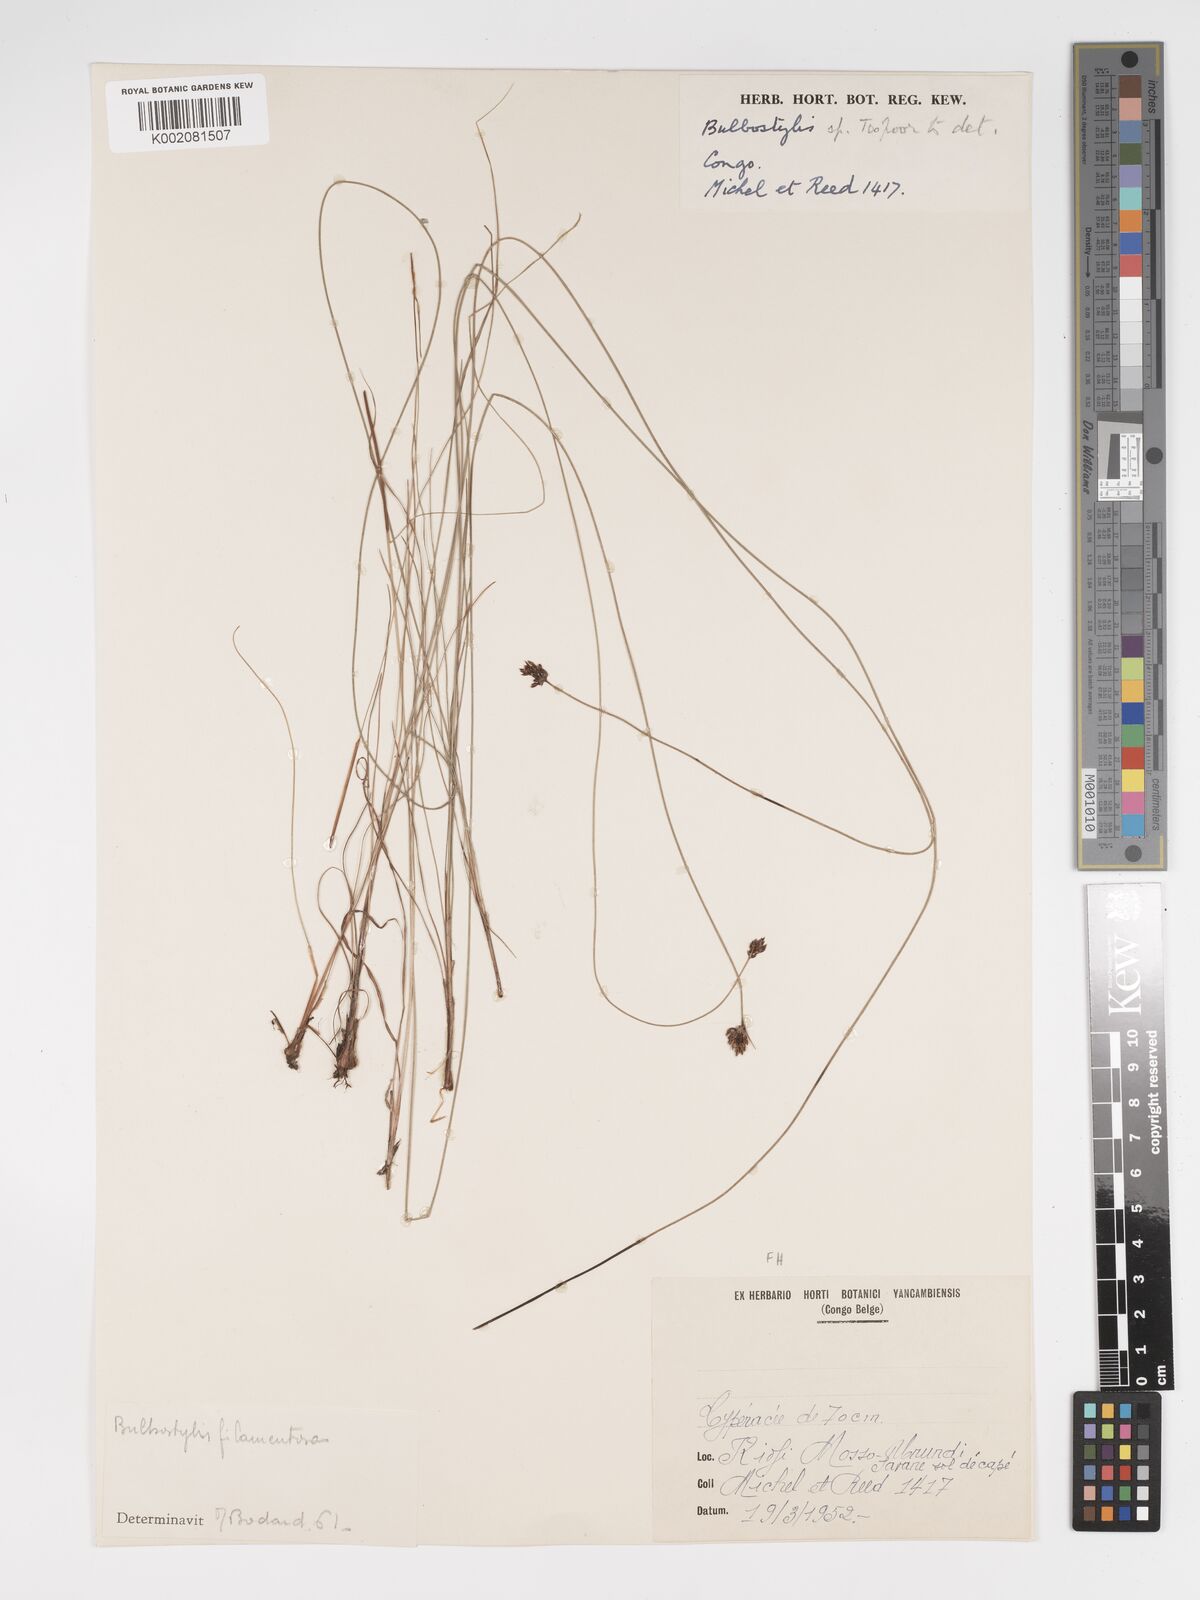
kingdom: Plantae
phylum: Tracheophyta
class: Liliopsida
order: Poales
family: Cyperaceae
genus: Bulbostylis
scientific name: Bulbostylis scabricaulis
